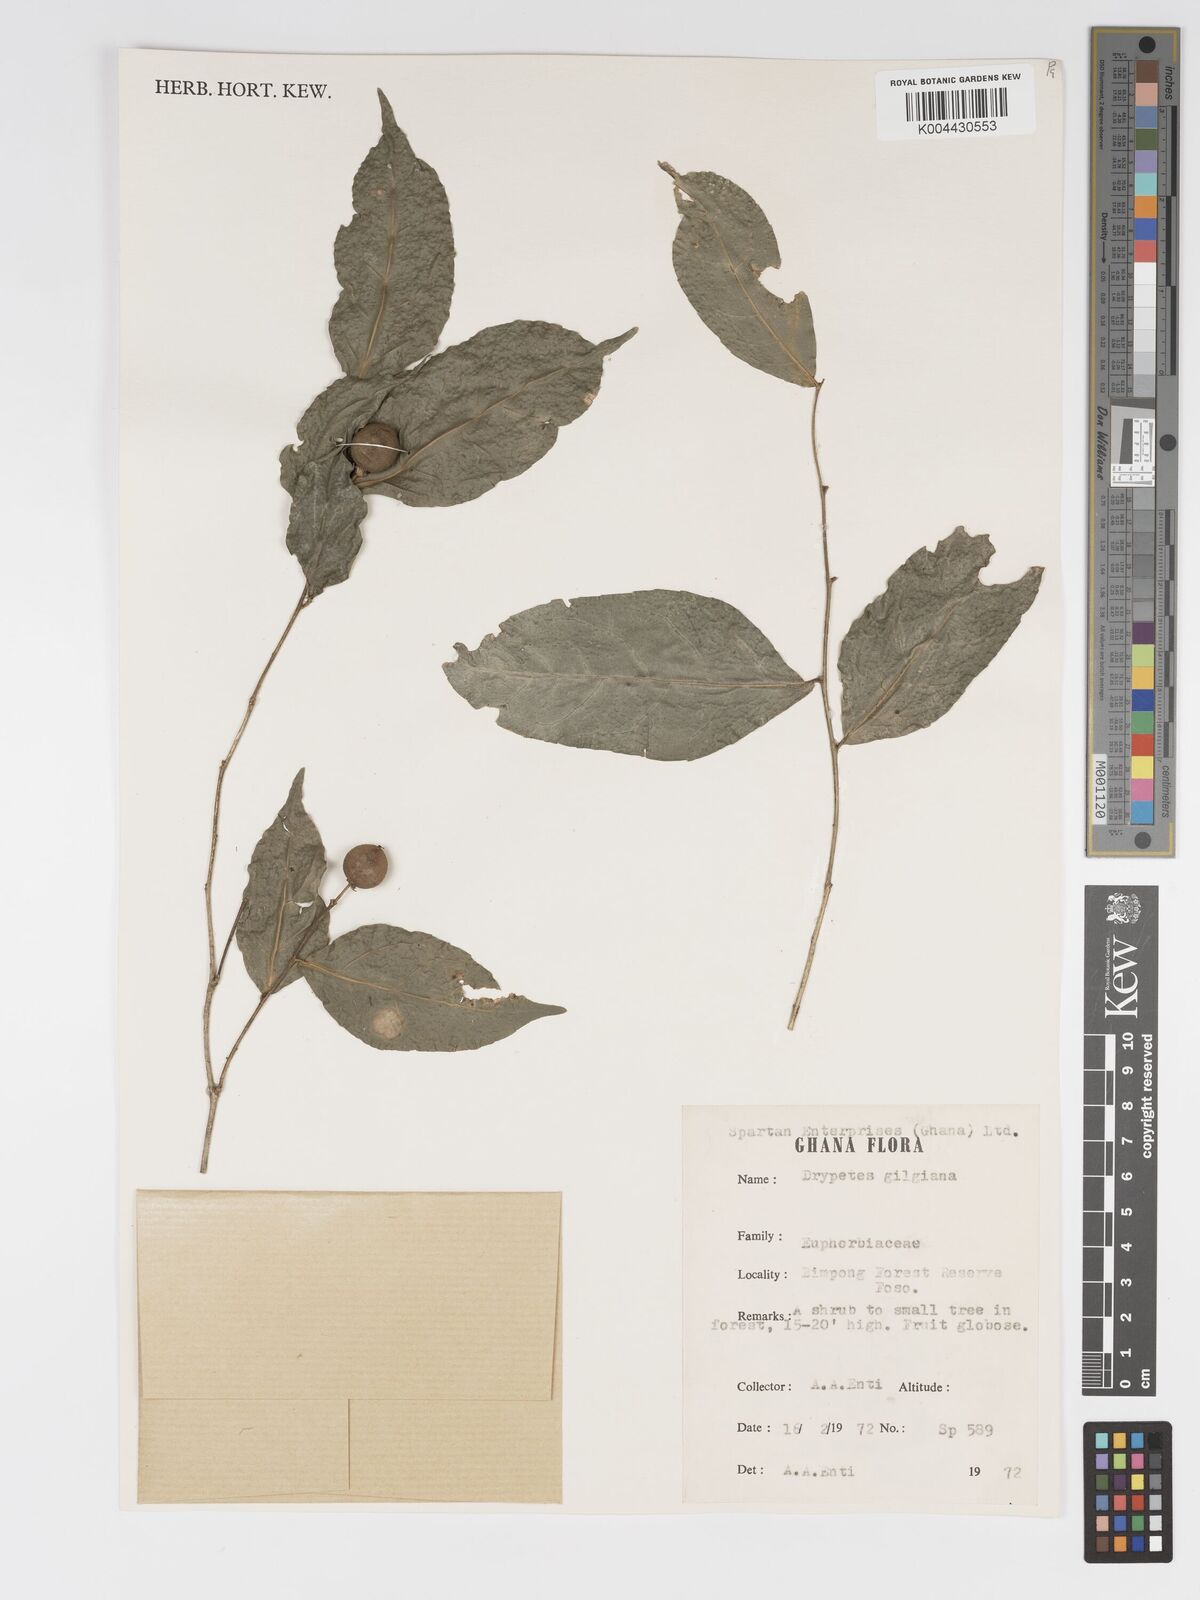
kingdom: Plantae
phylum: Tracheophyta
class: Magnoliopsida
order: Malpighiales
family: Putranjivaceae
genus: Drypetes
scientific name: Drypetes gilgiana
